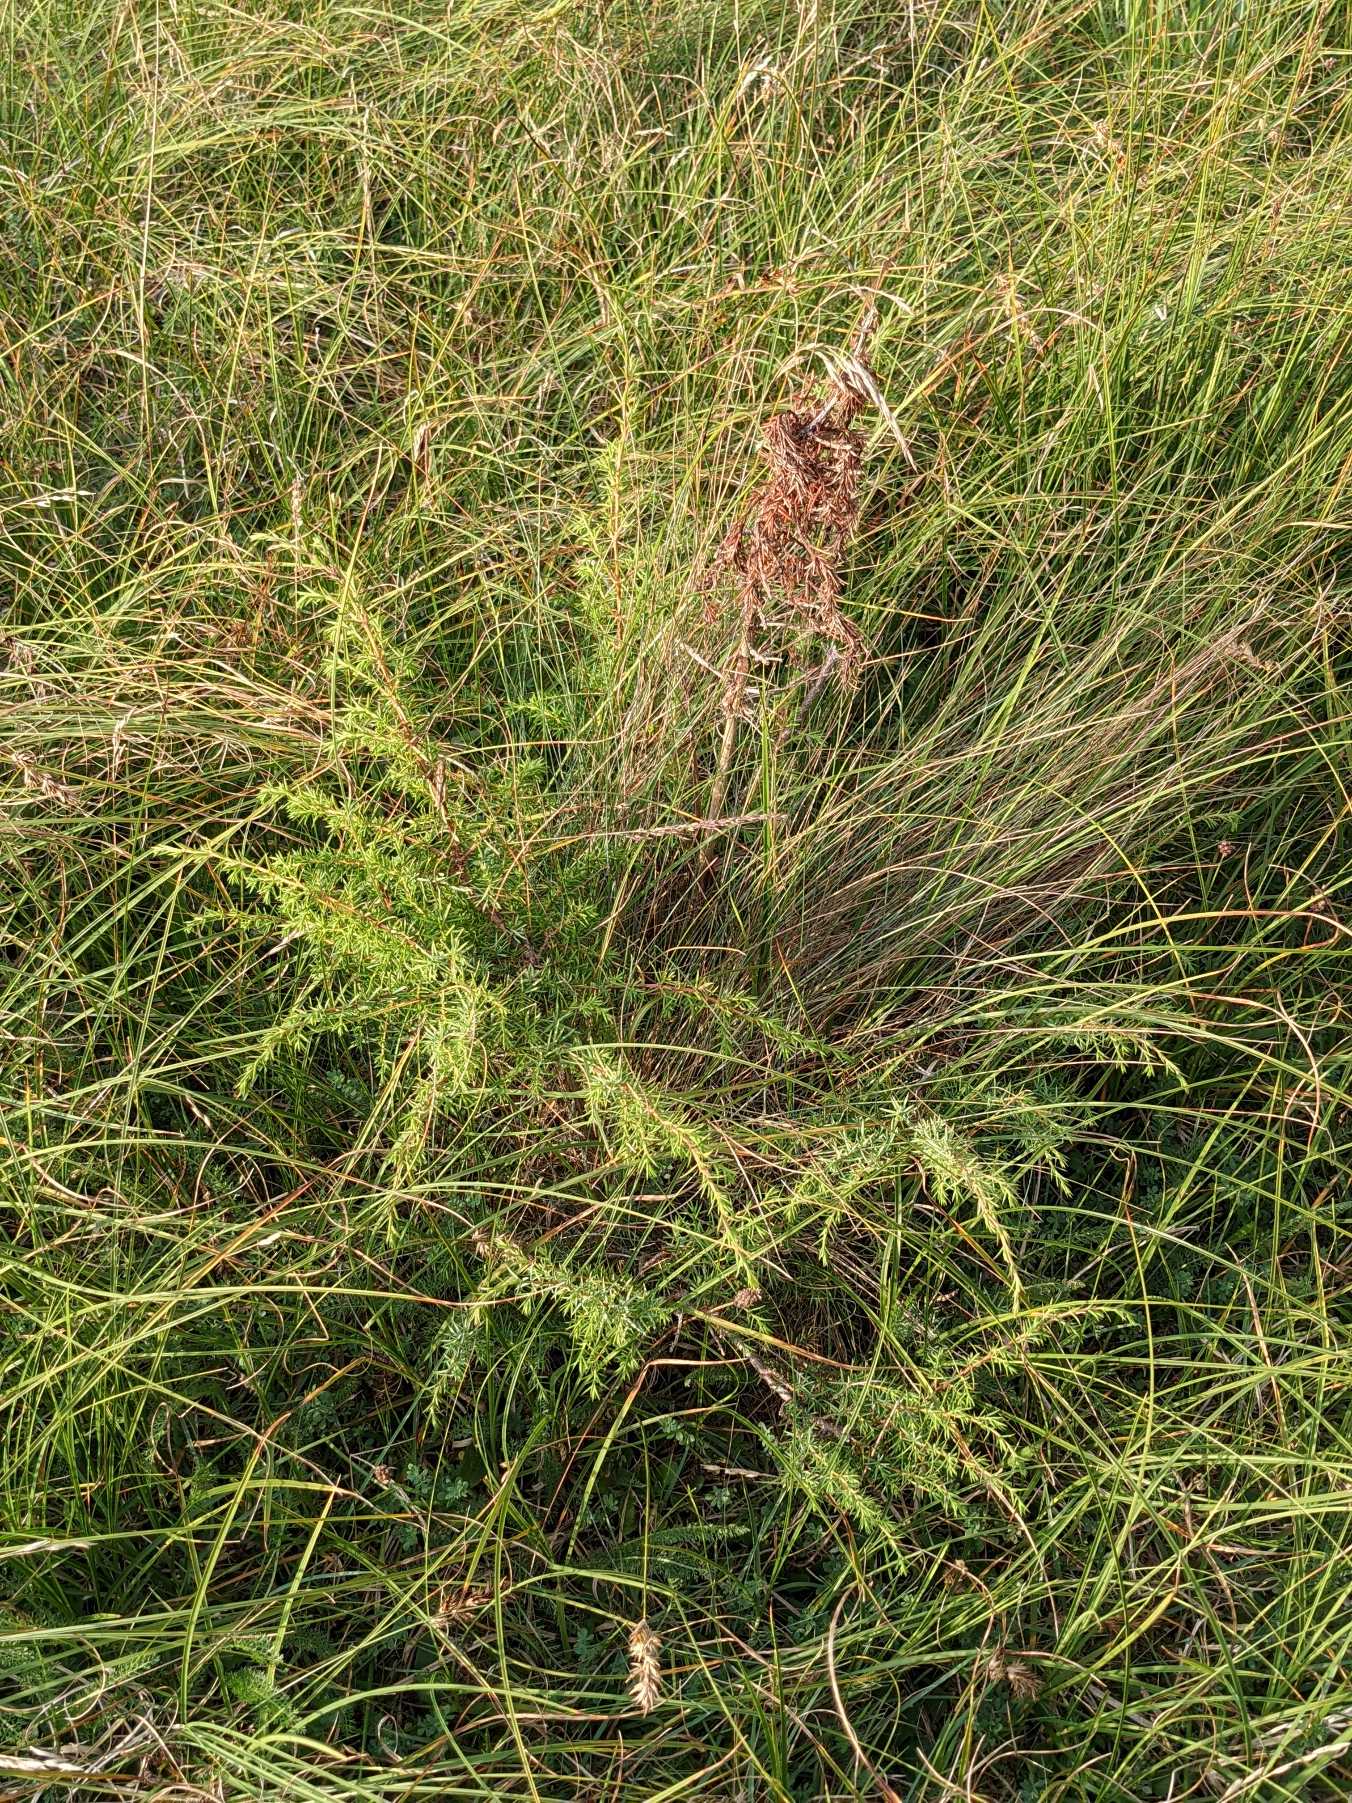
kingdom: Plantae
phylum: Tracheophyta
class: Pinopsida
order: Pinales
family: Cupressaceae
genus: Juniperus
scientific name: Juniperus communis
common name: Almindelig ene
